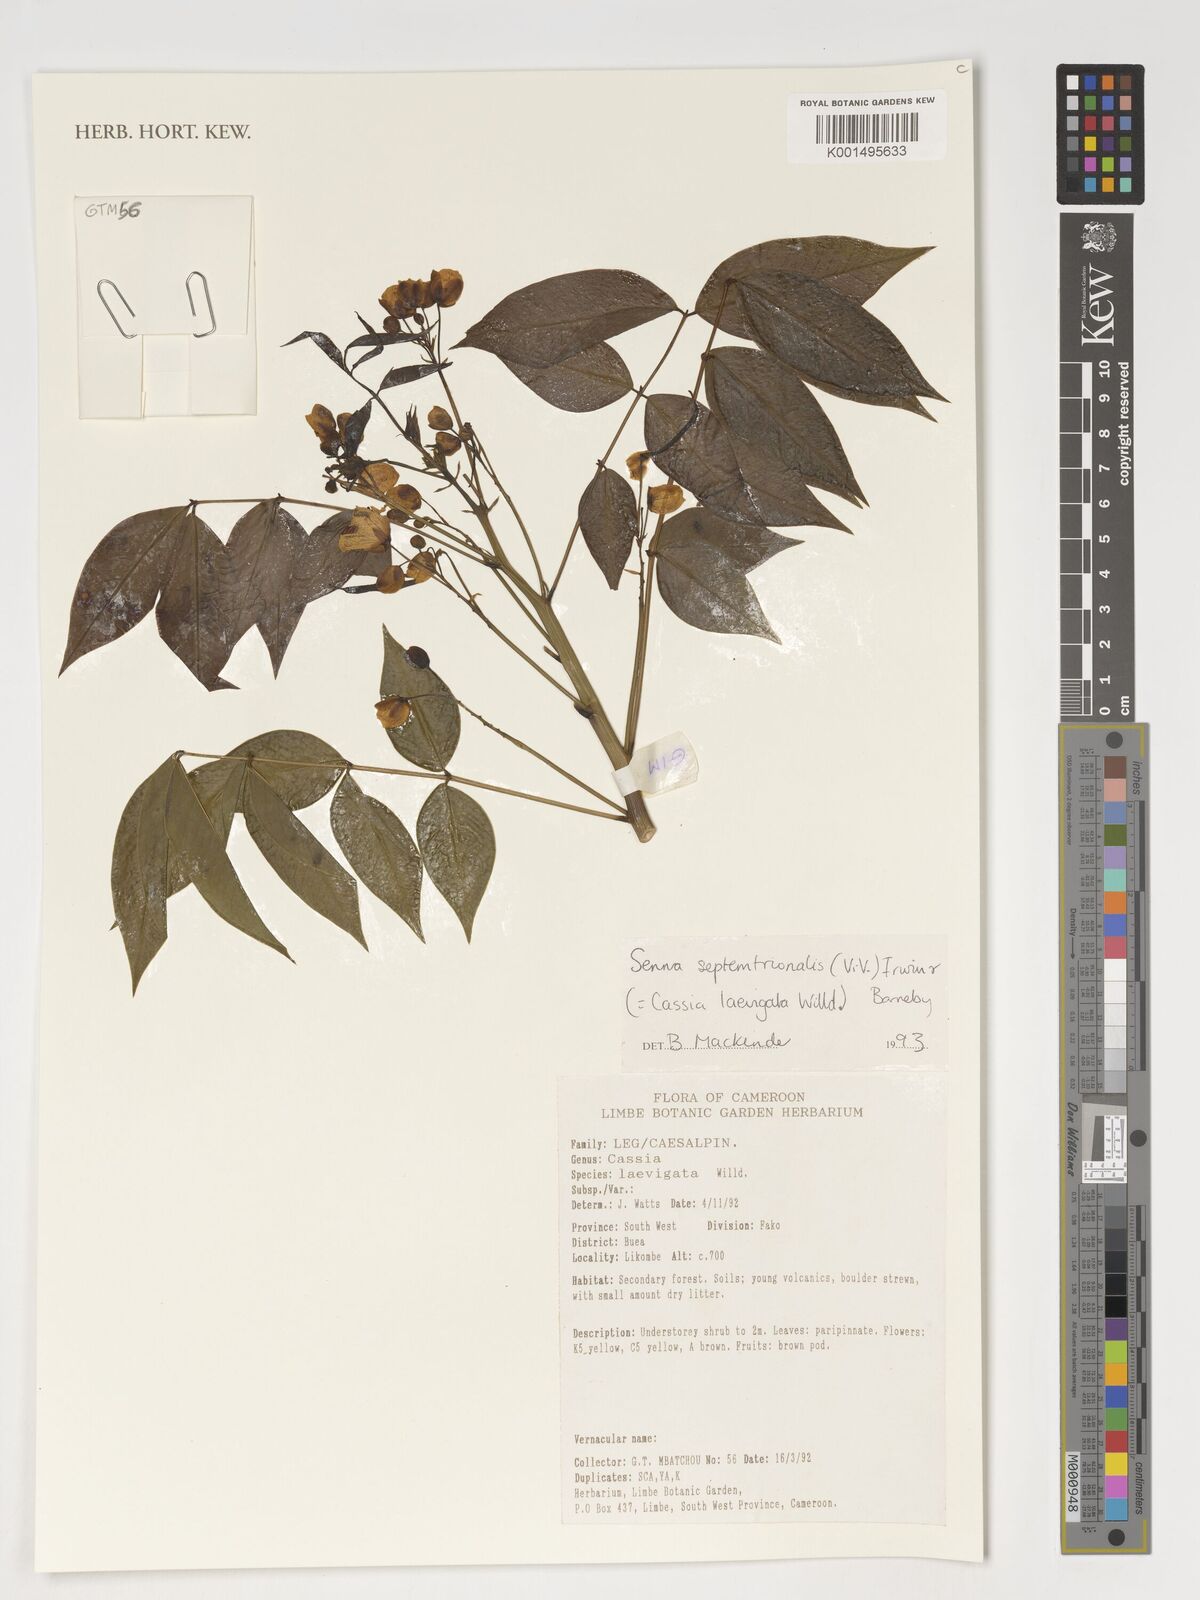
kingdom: Plantae
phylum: Tracheophyta
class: Magnoliopsida
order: Fabales
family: Fabaceae
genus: Senna
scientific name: Senna septemtrionalis
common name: Arsenic bush
